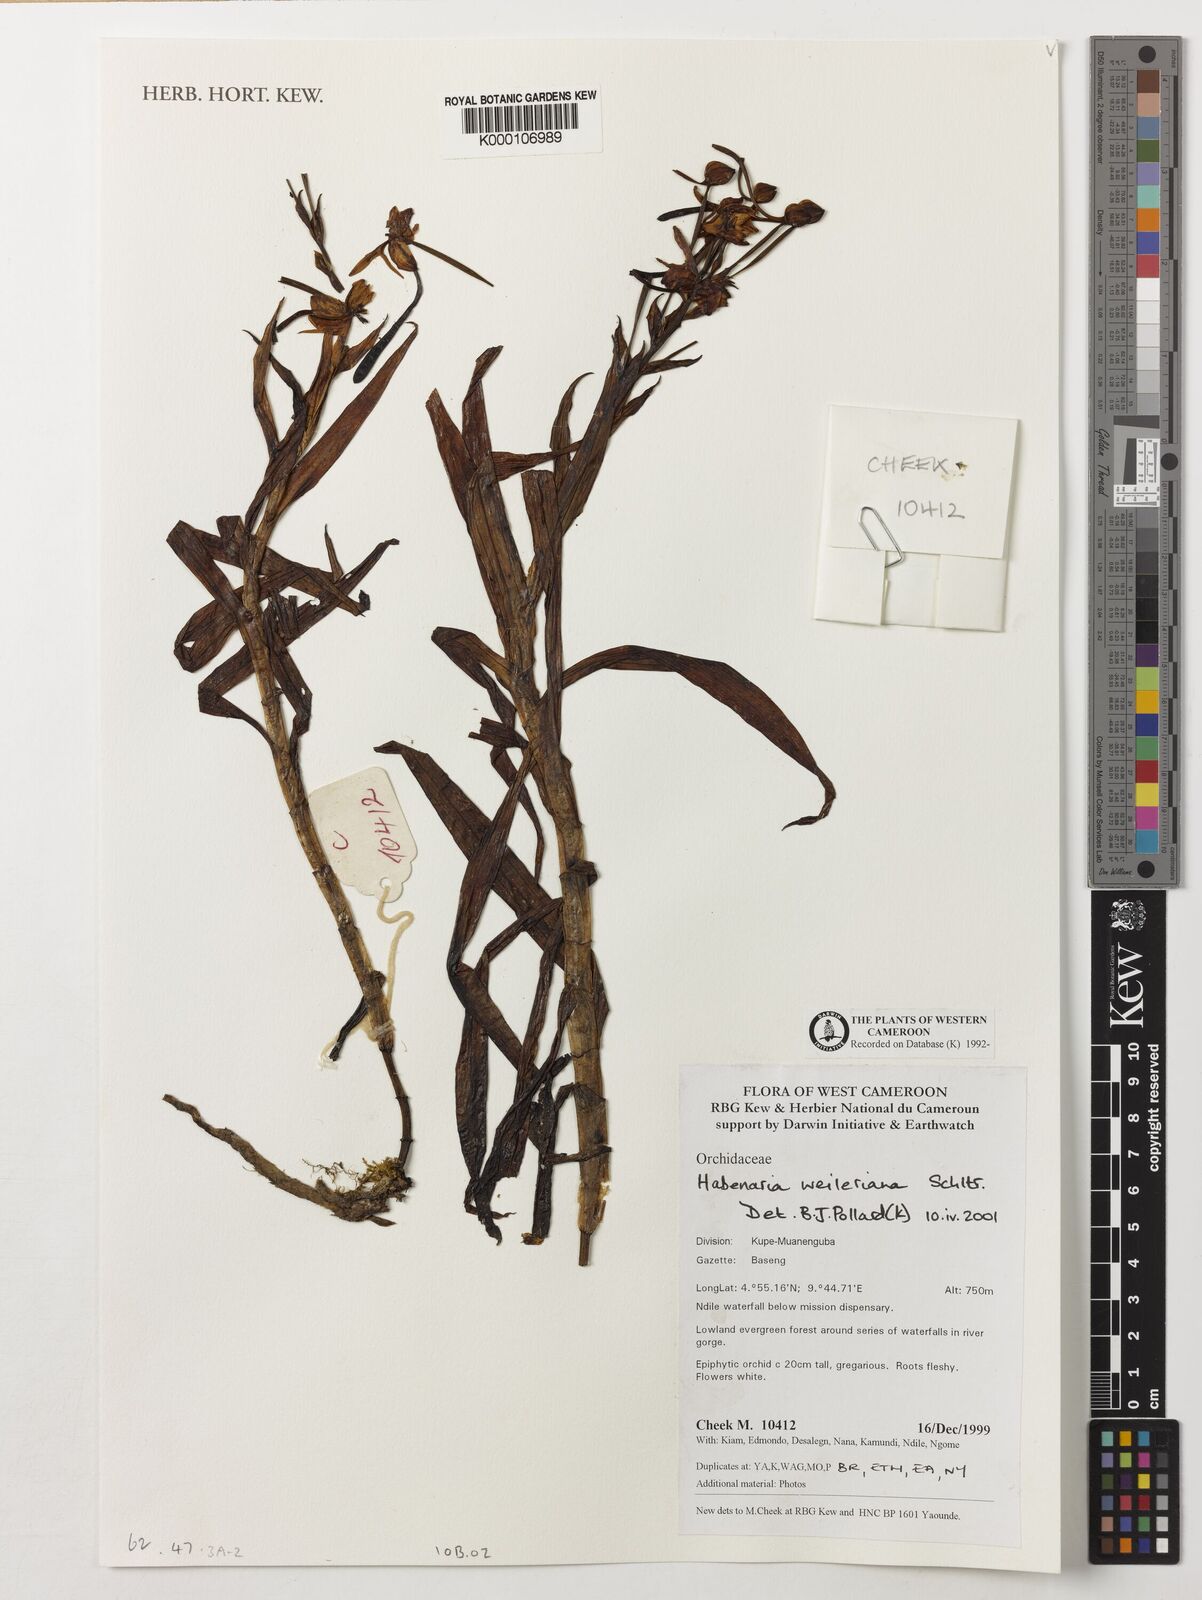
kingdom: Plantae
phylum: Tracheophyta
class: Liliopsida
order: Asparagales
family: Orchidaceae
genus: Habenaria
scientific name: Habenaria weileriana
